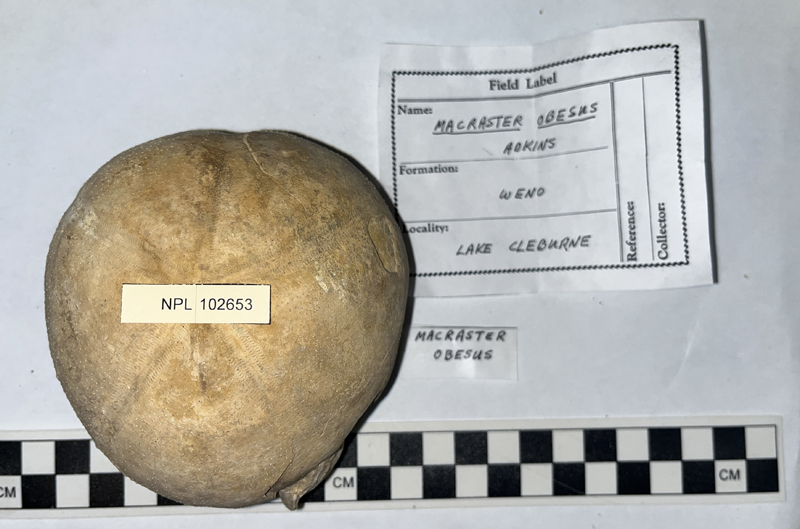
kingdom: Animalia
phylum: Echinodermata
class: Echinoidea
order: Spatangoida
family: Toxasteridae
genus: Macraster
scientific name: Macraster elegans
